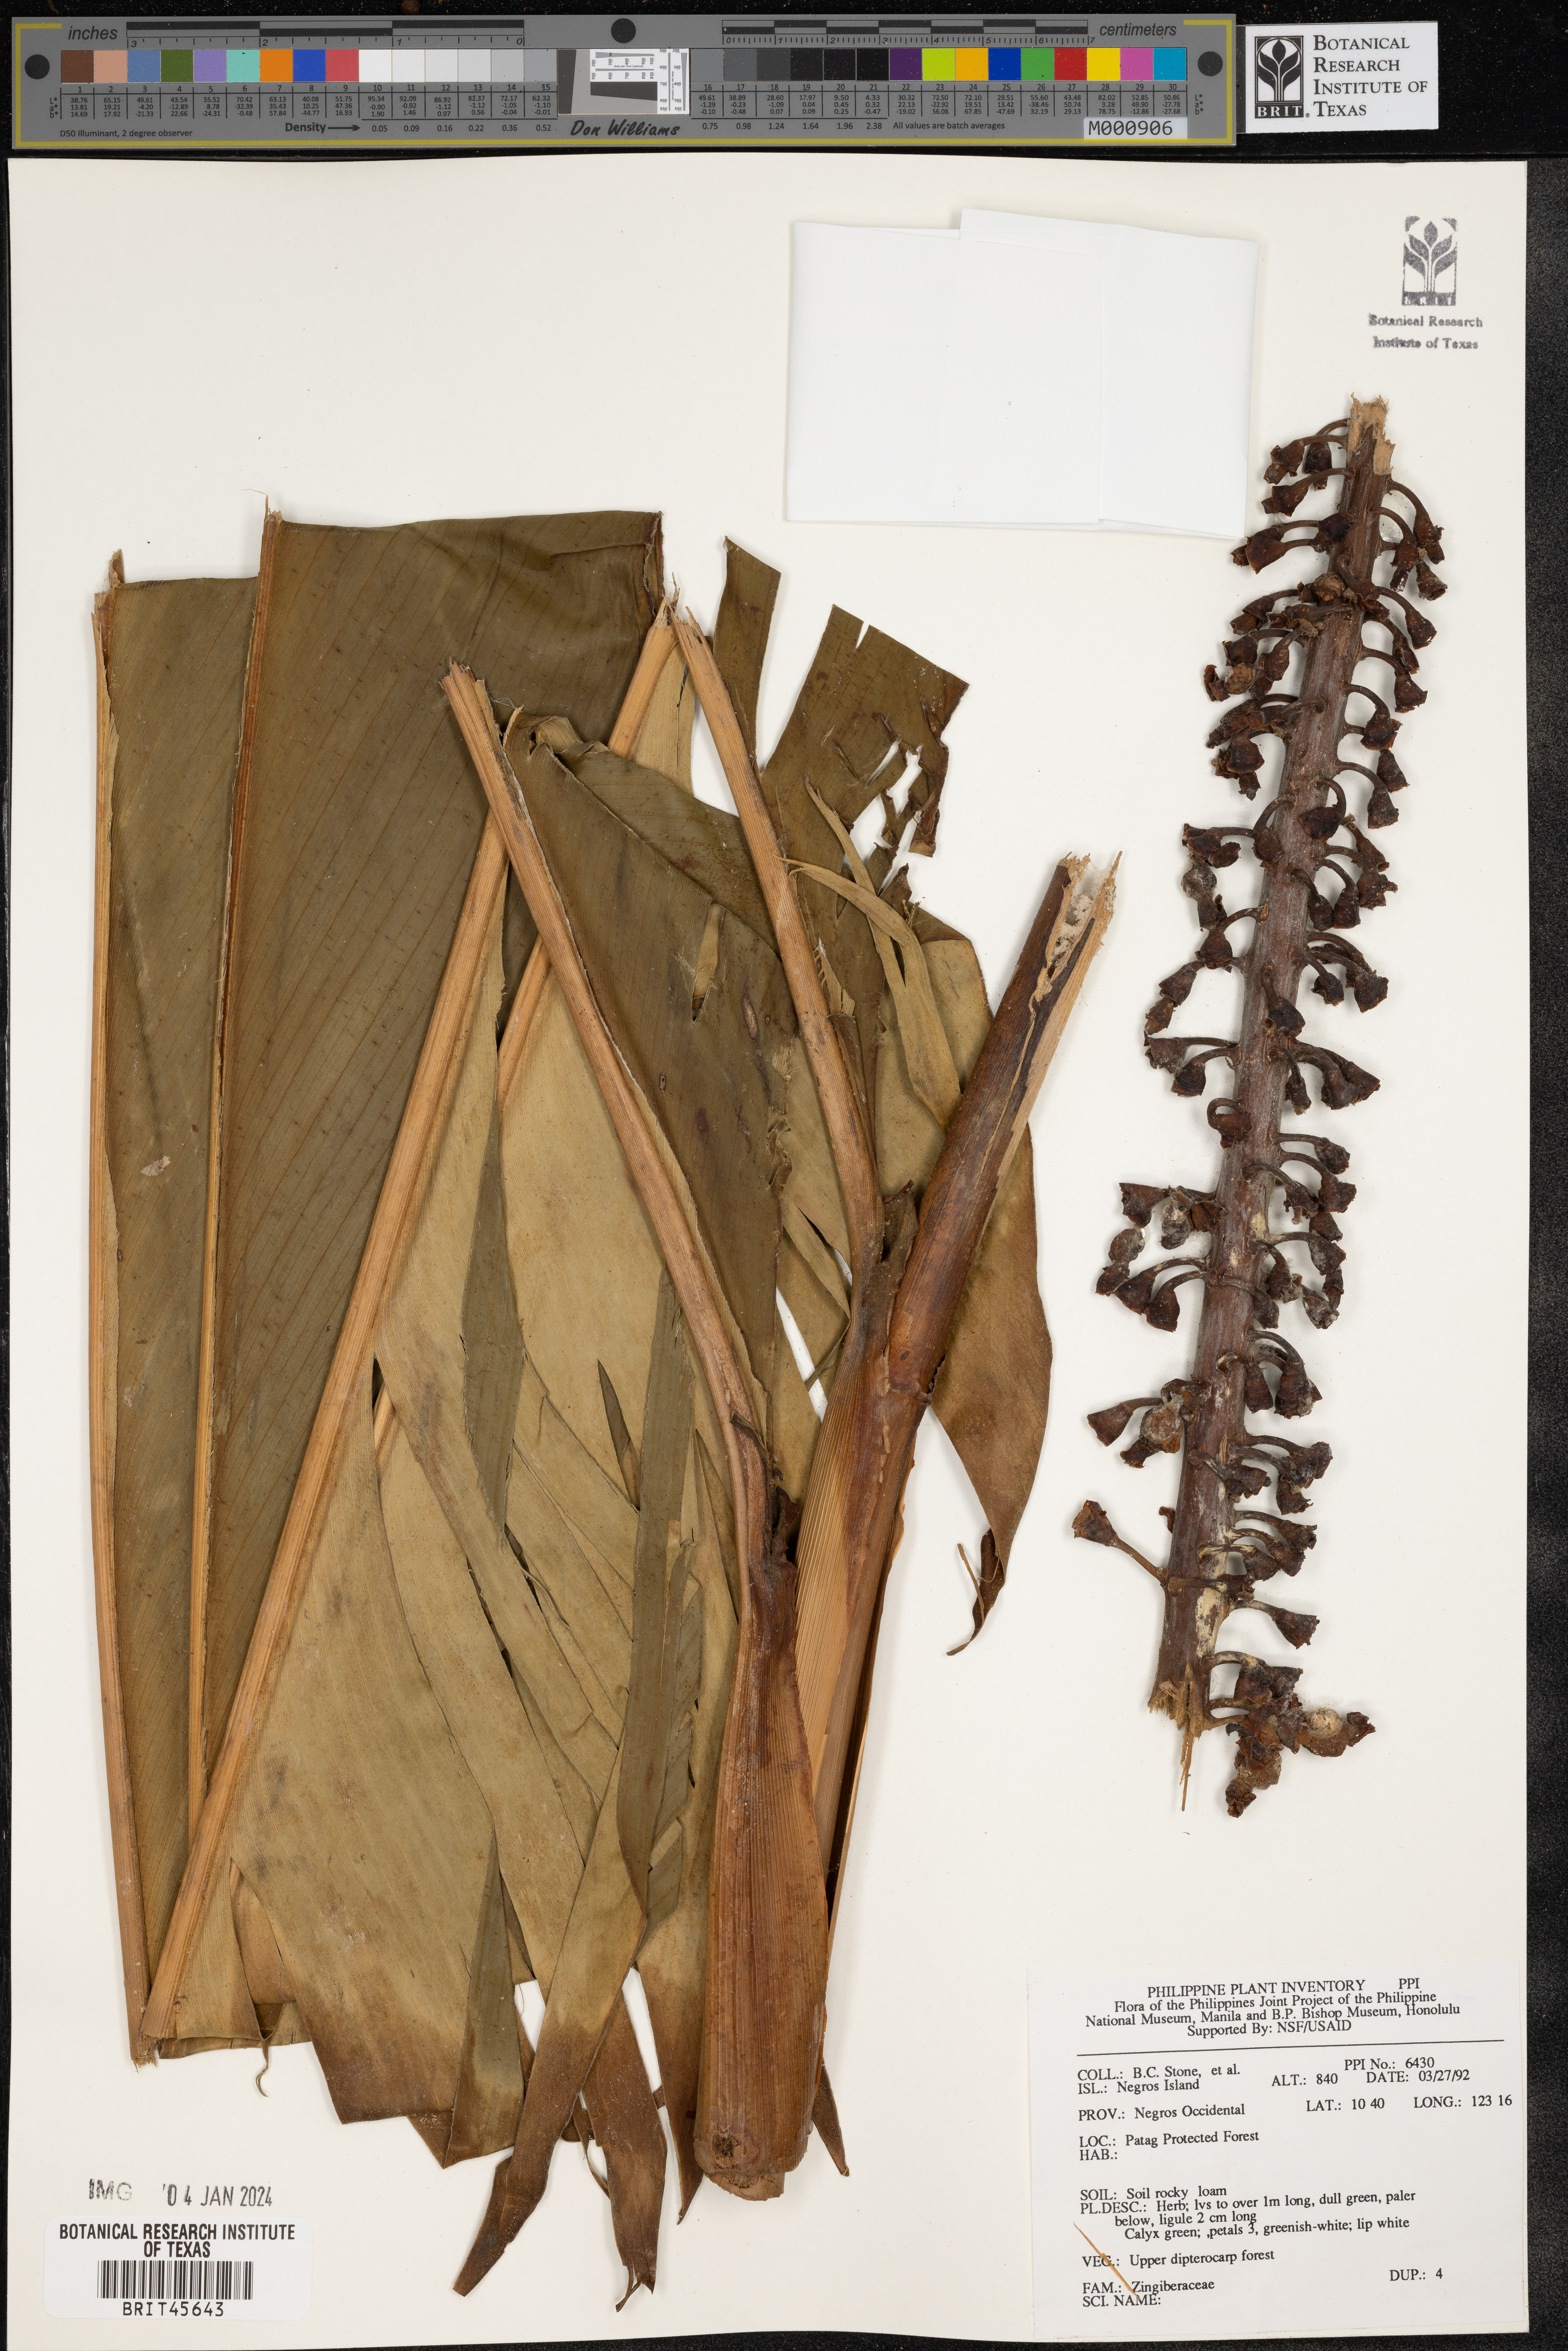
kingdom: Plantae
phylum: Tracheophyta
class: Liliopsida
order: Zingiberales
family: Zingiberaceae
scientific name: Zingiberaceae
